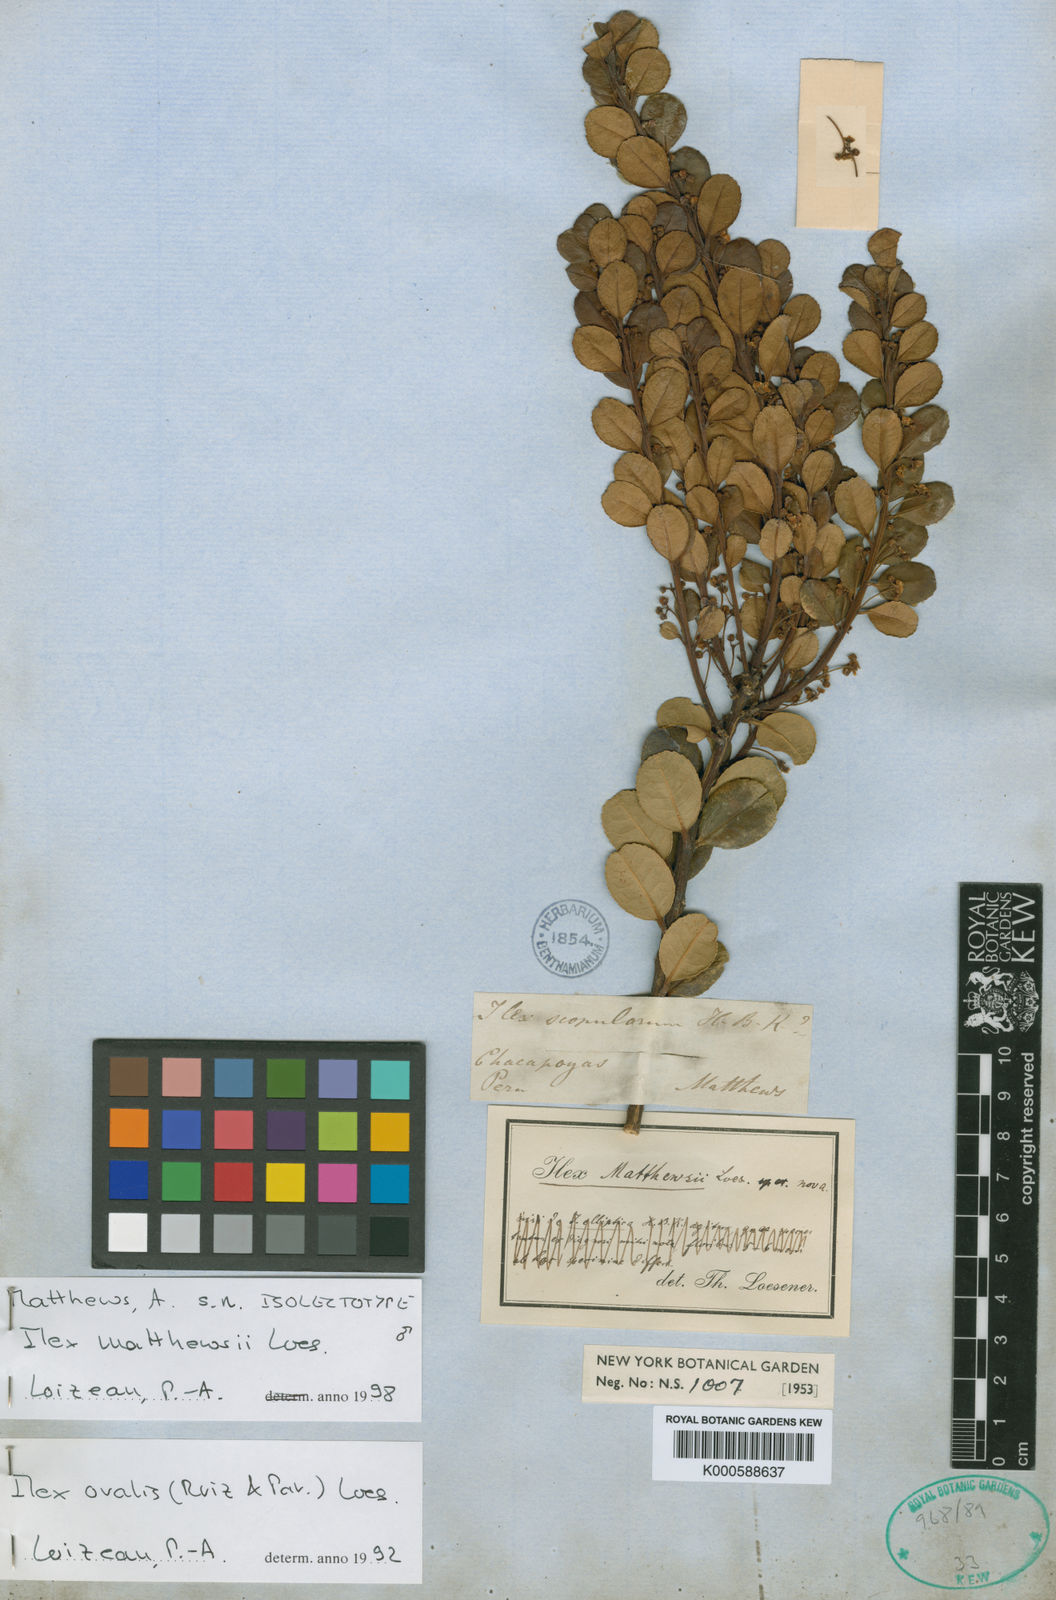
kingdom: Plantae
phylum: Tracheophyta
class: Magnoliopsida
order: Aquifoliales
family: Aquifoliaceae
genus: Ilex
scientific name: Ilex ovalis
